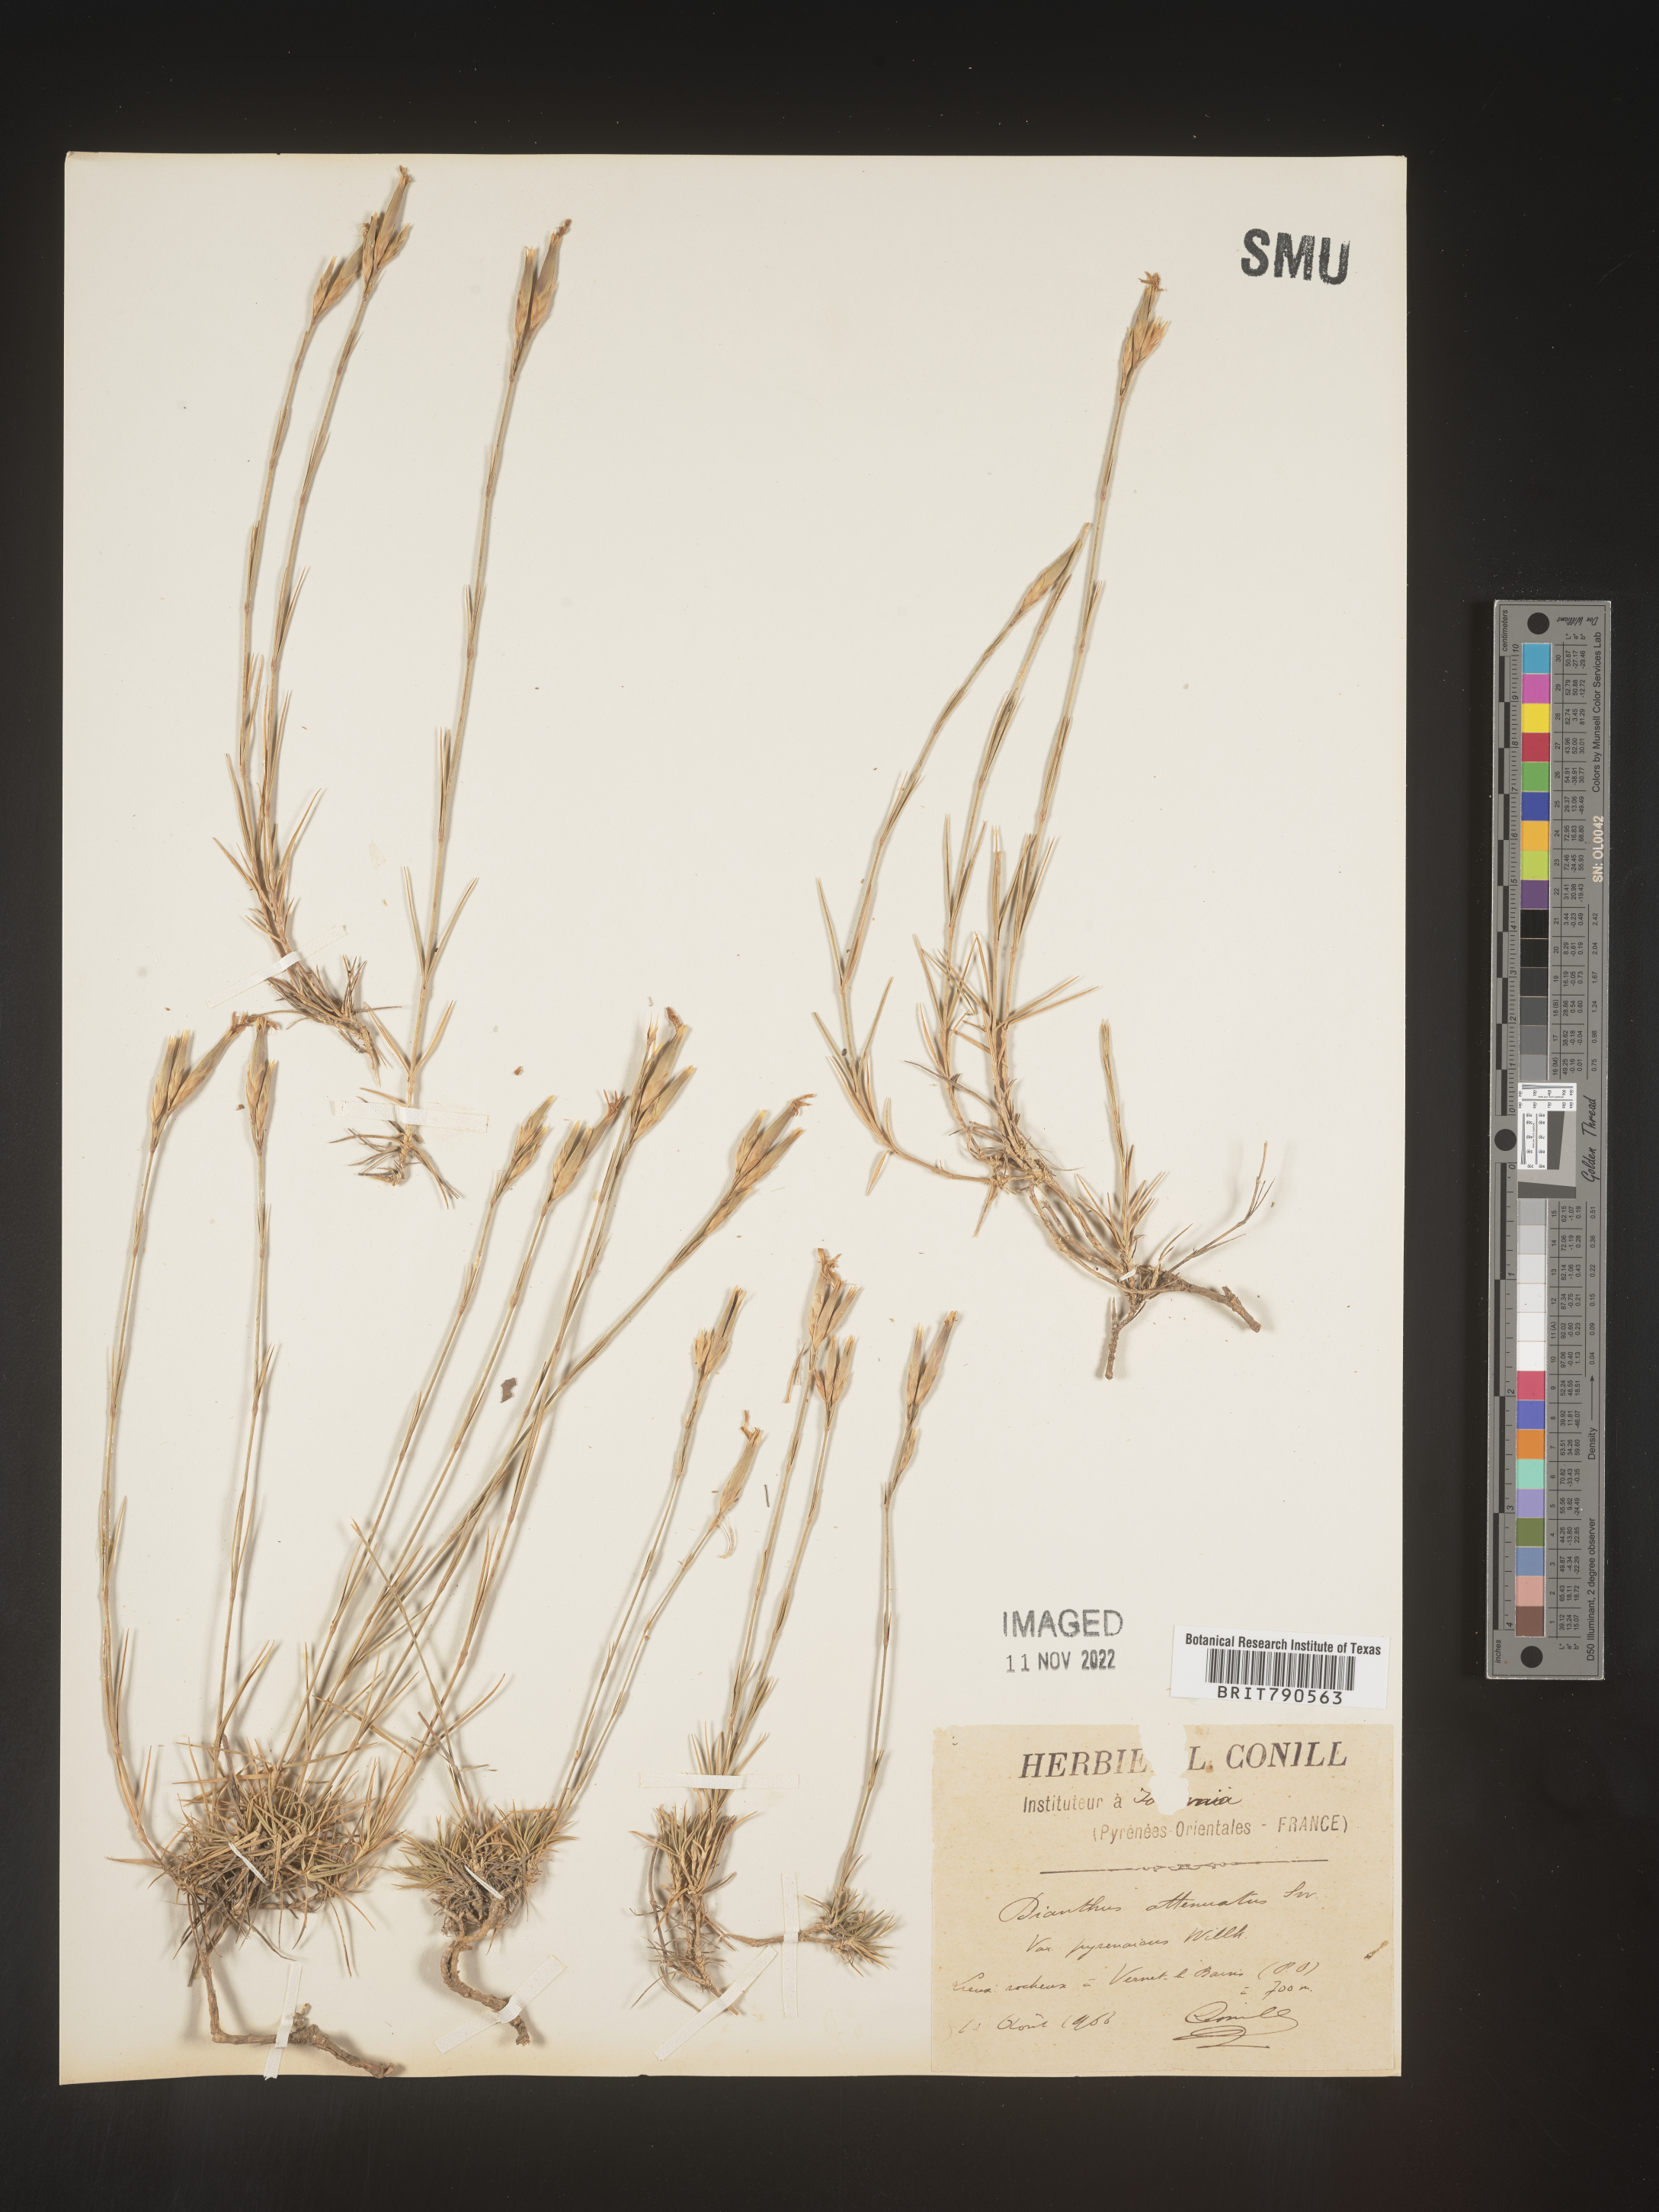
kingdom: Plantae
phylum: Tracheophyta
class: Magnoliopsida
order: Caryophyllales
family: Caryophyllaceae
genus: Dianthus
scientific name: Dianthus
